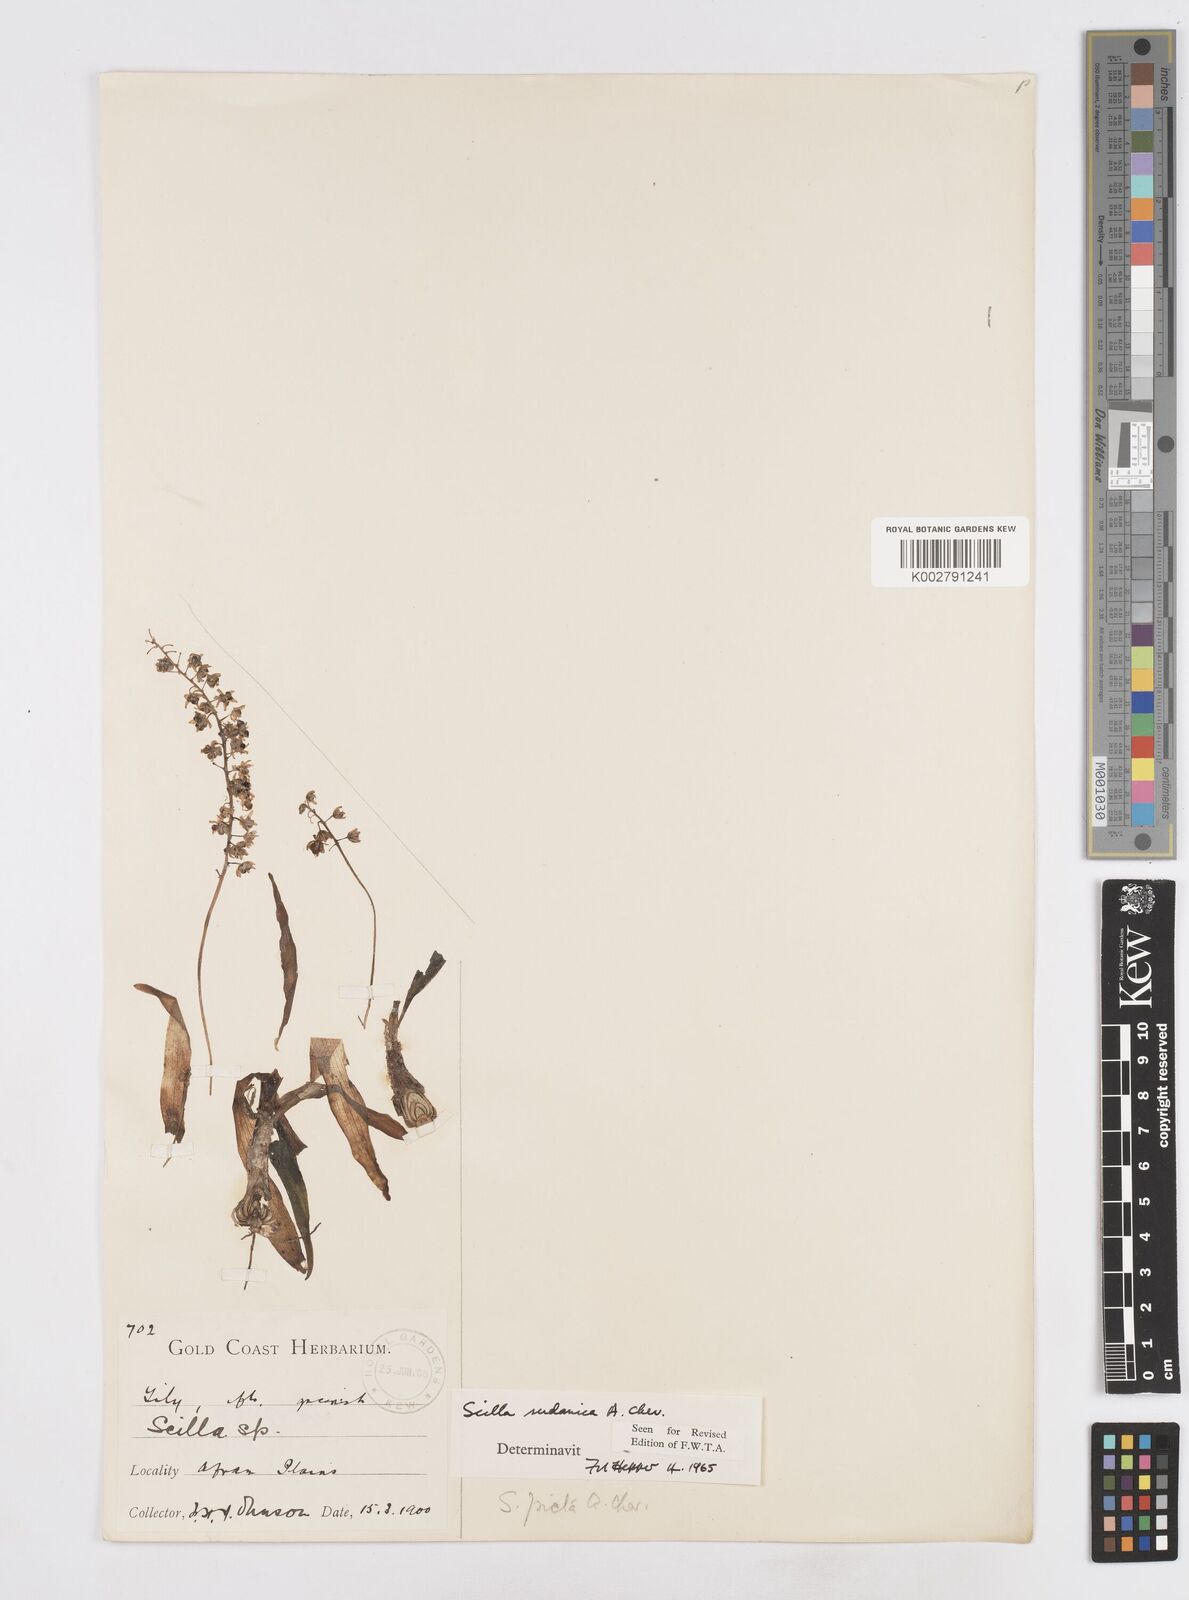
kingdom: Plantae
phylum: Tracheophyta
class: Liliopsida
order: Asparagales
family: Asparagaceae
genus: Ledebouria
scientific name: Ledebouria sudanica
